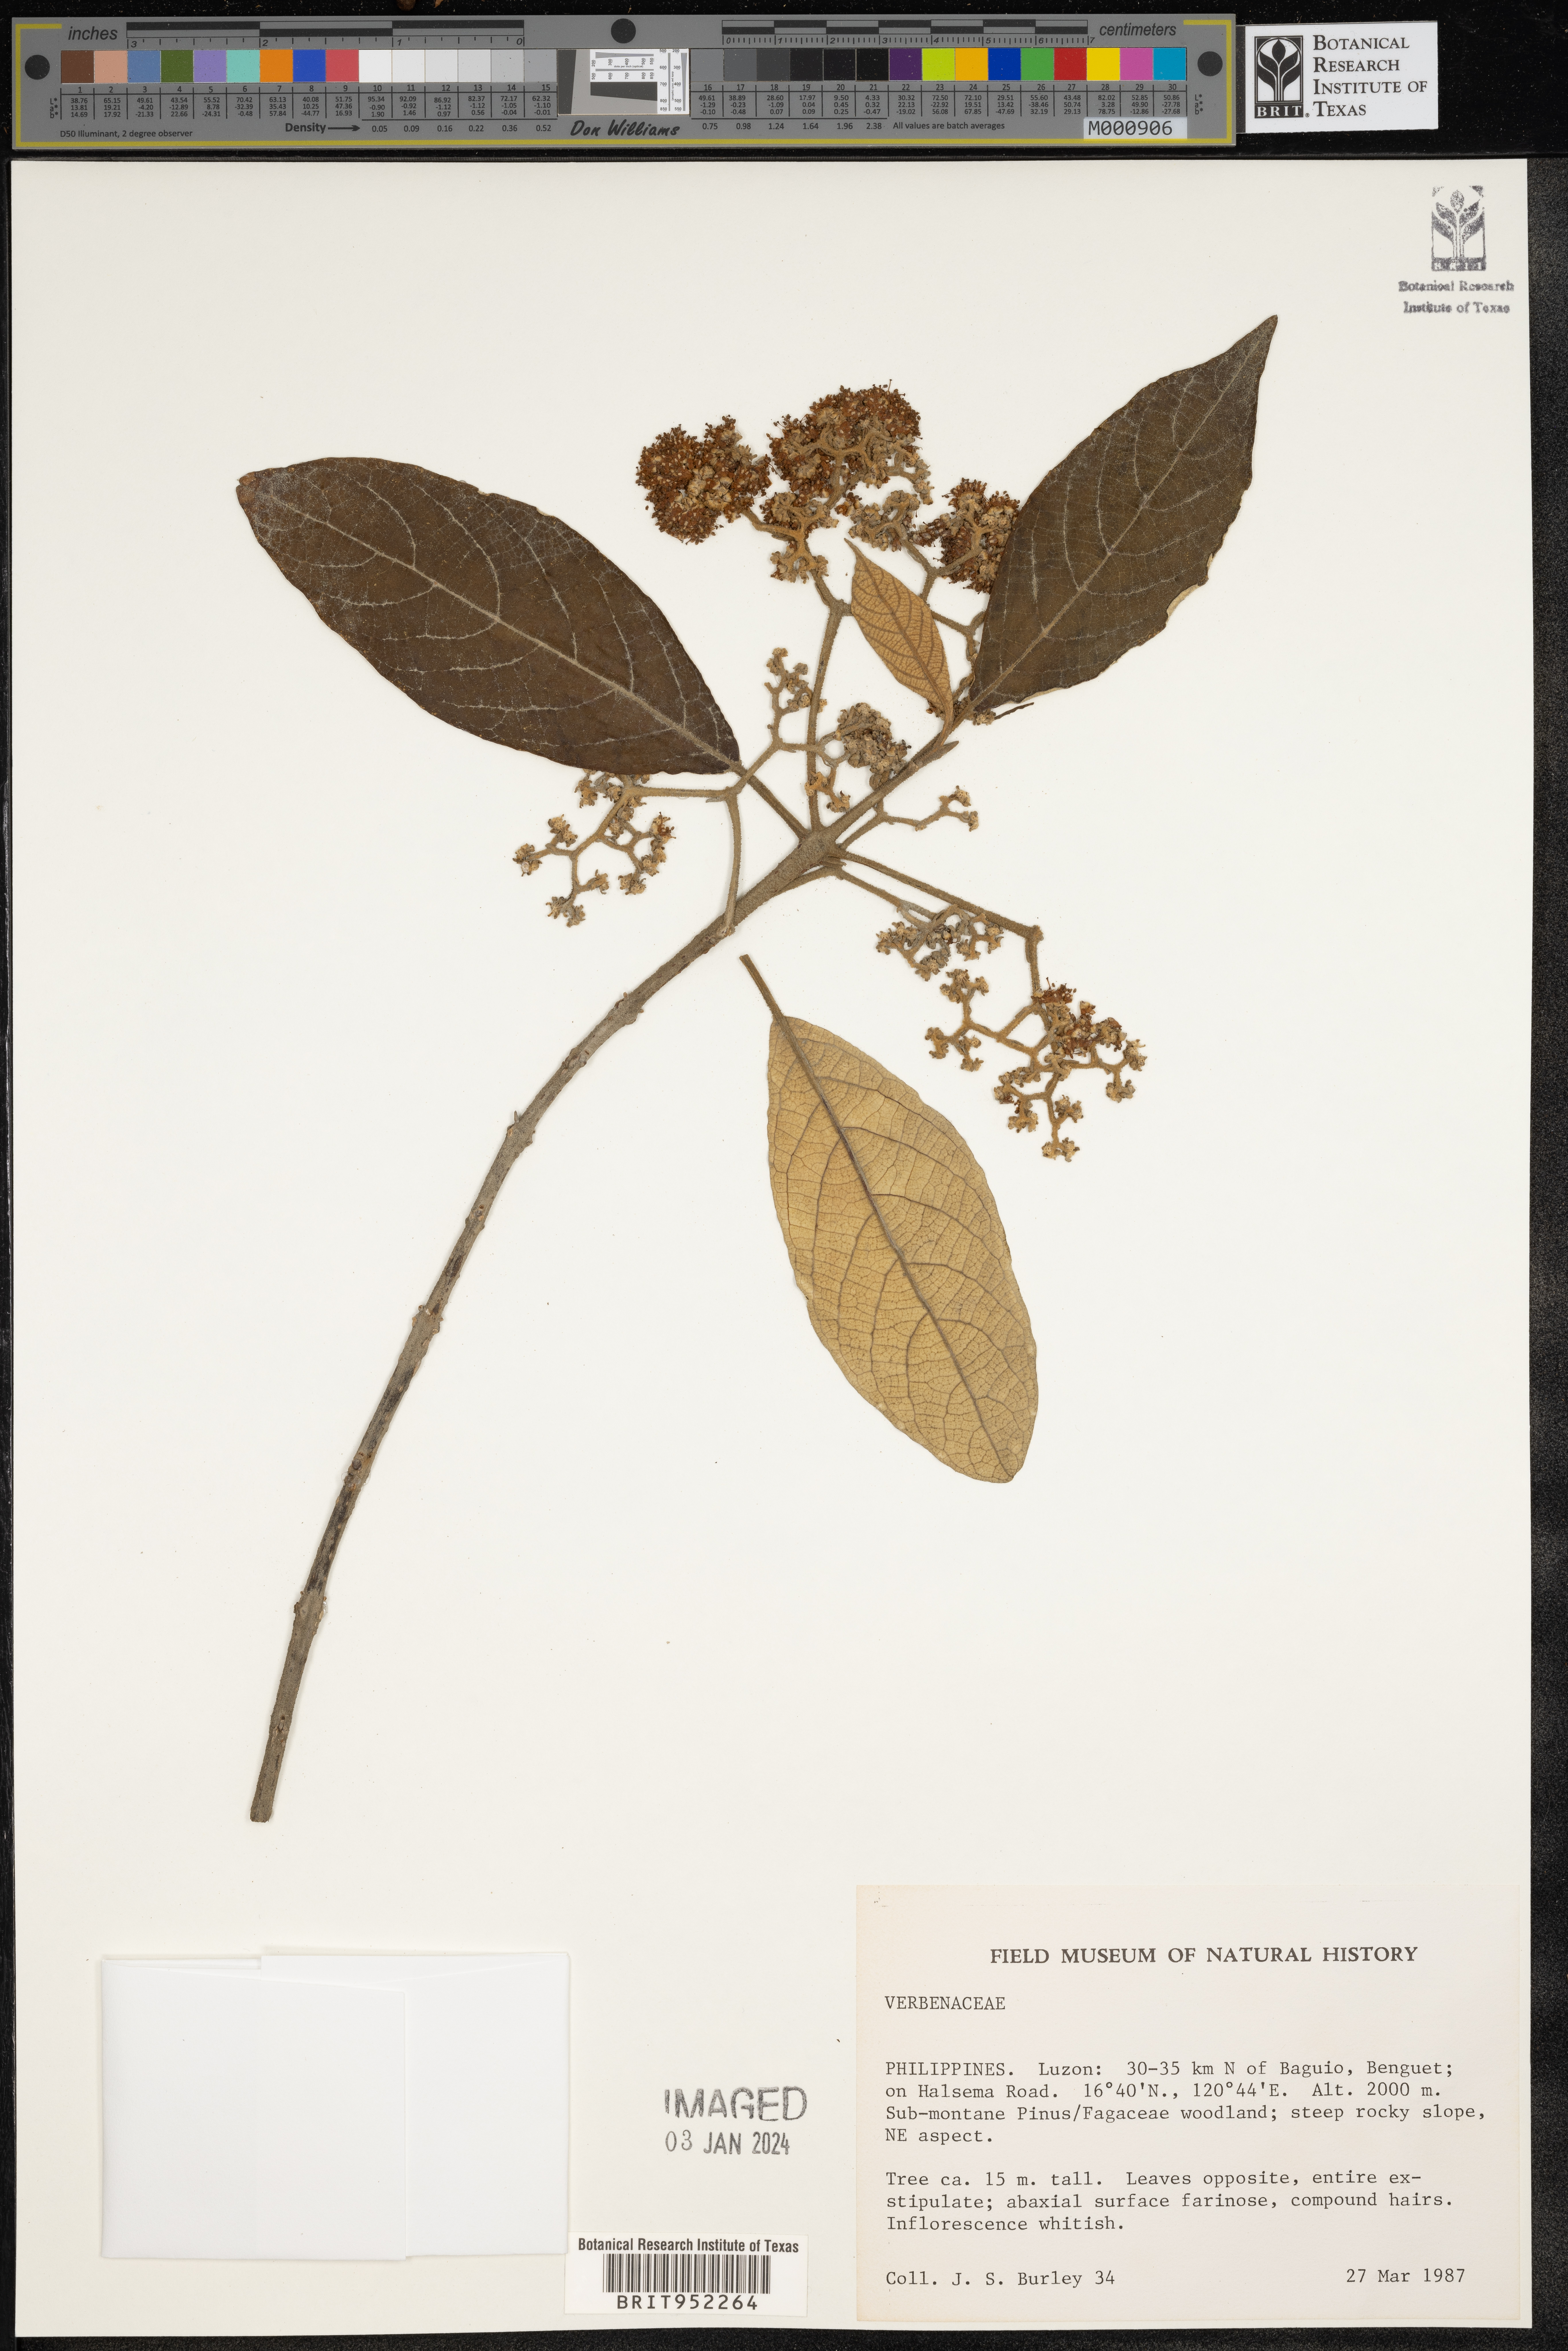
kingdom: Plantae
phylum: Tracheophyta
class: Magnoliopsida
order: Lamiales
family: Verbenaceae
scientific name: Verbenaceae
